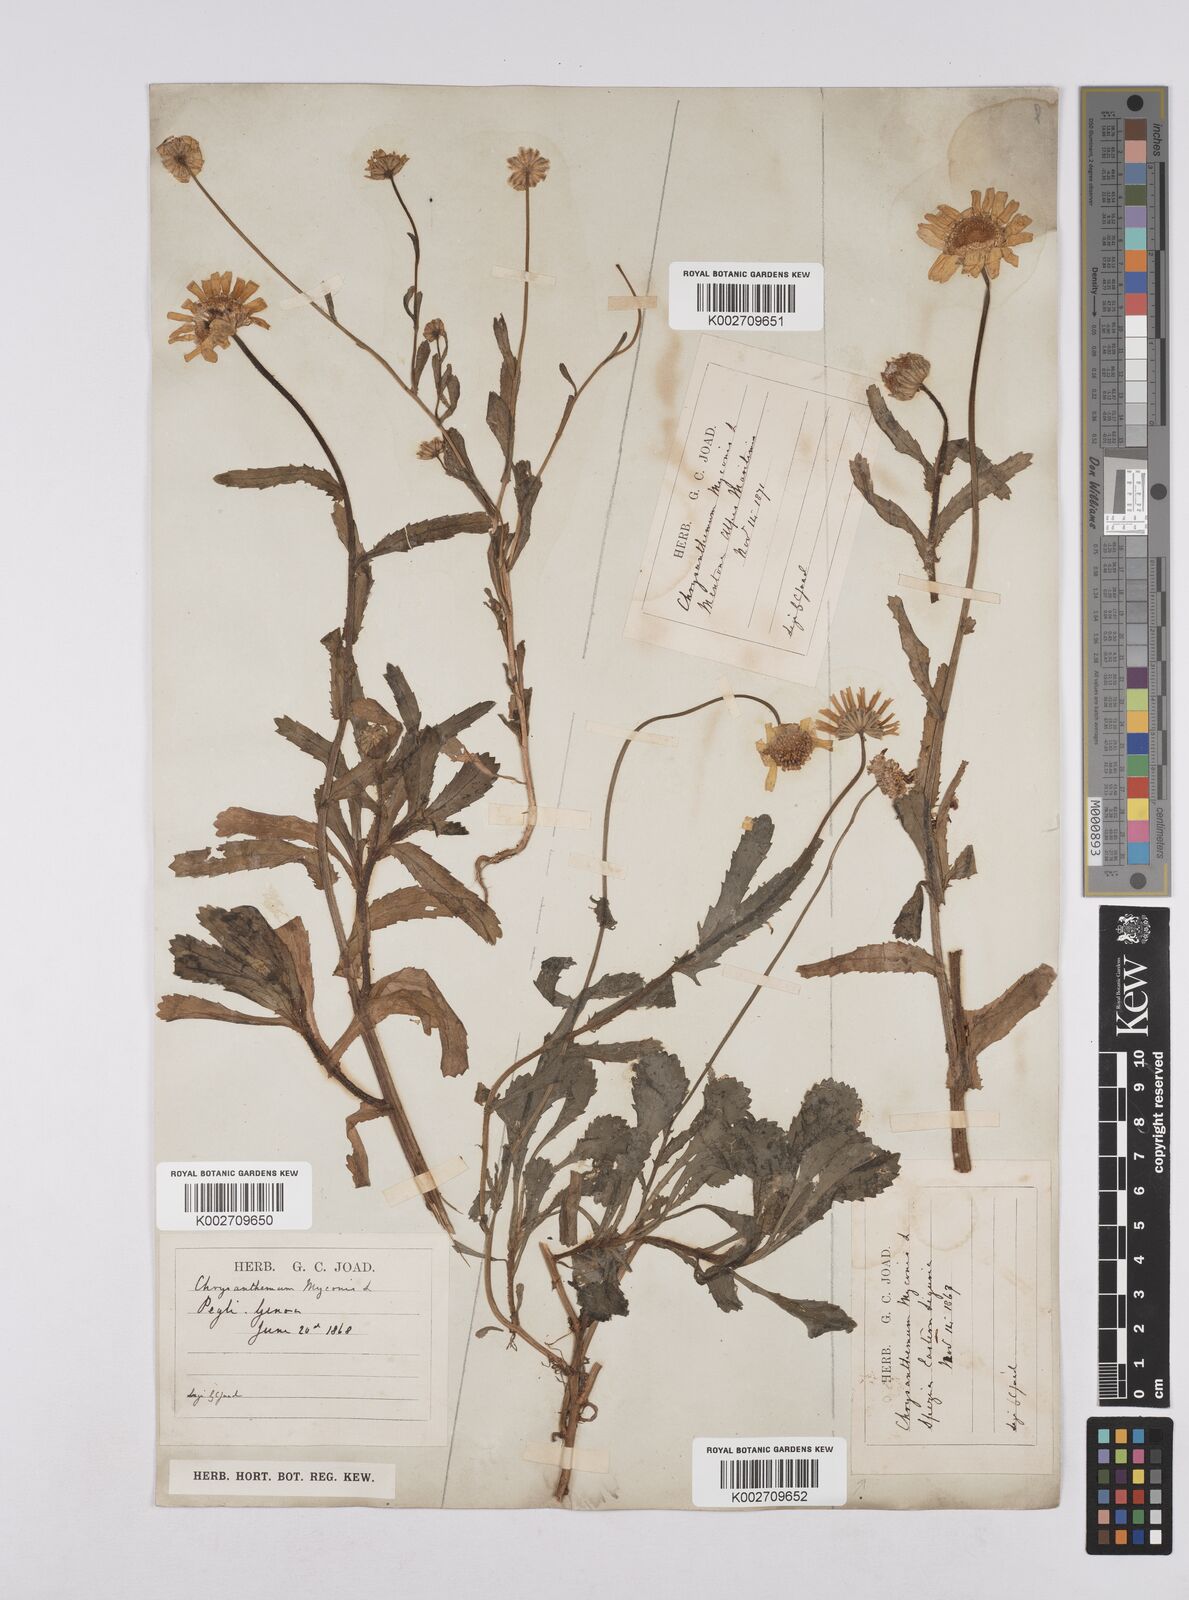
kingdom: Plantae
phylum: Tracheophyta
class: Magnoliopsida
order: Asterales
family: Asteraceae
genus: Coleostephus
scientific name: Coleostephus myconis
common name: Mediterranean marigold
